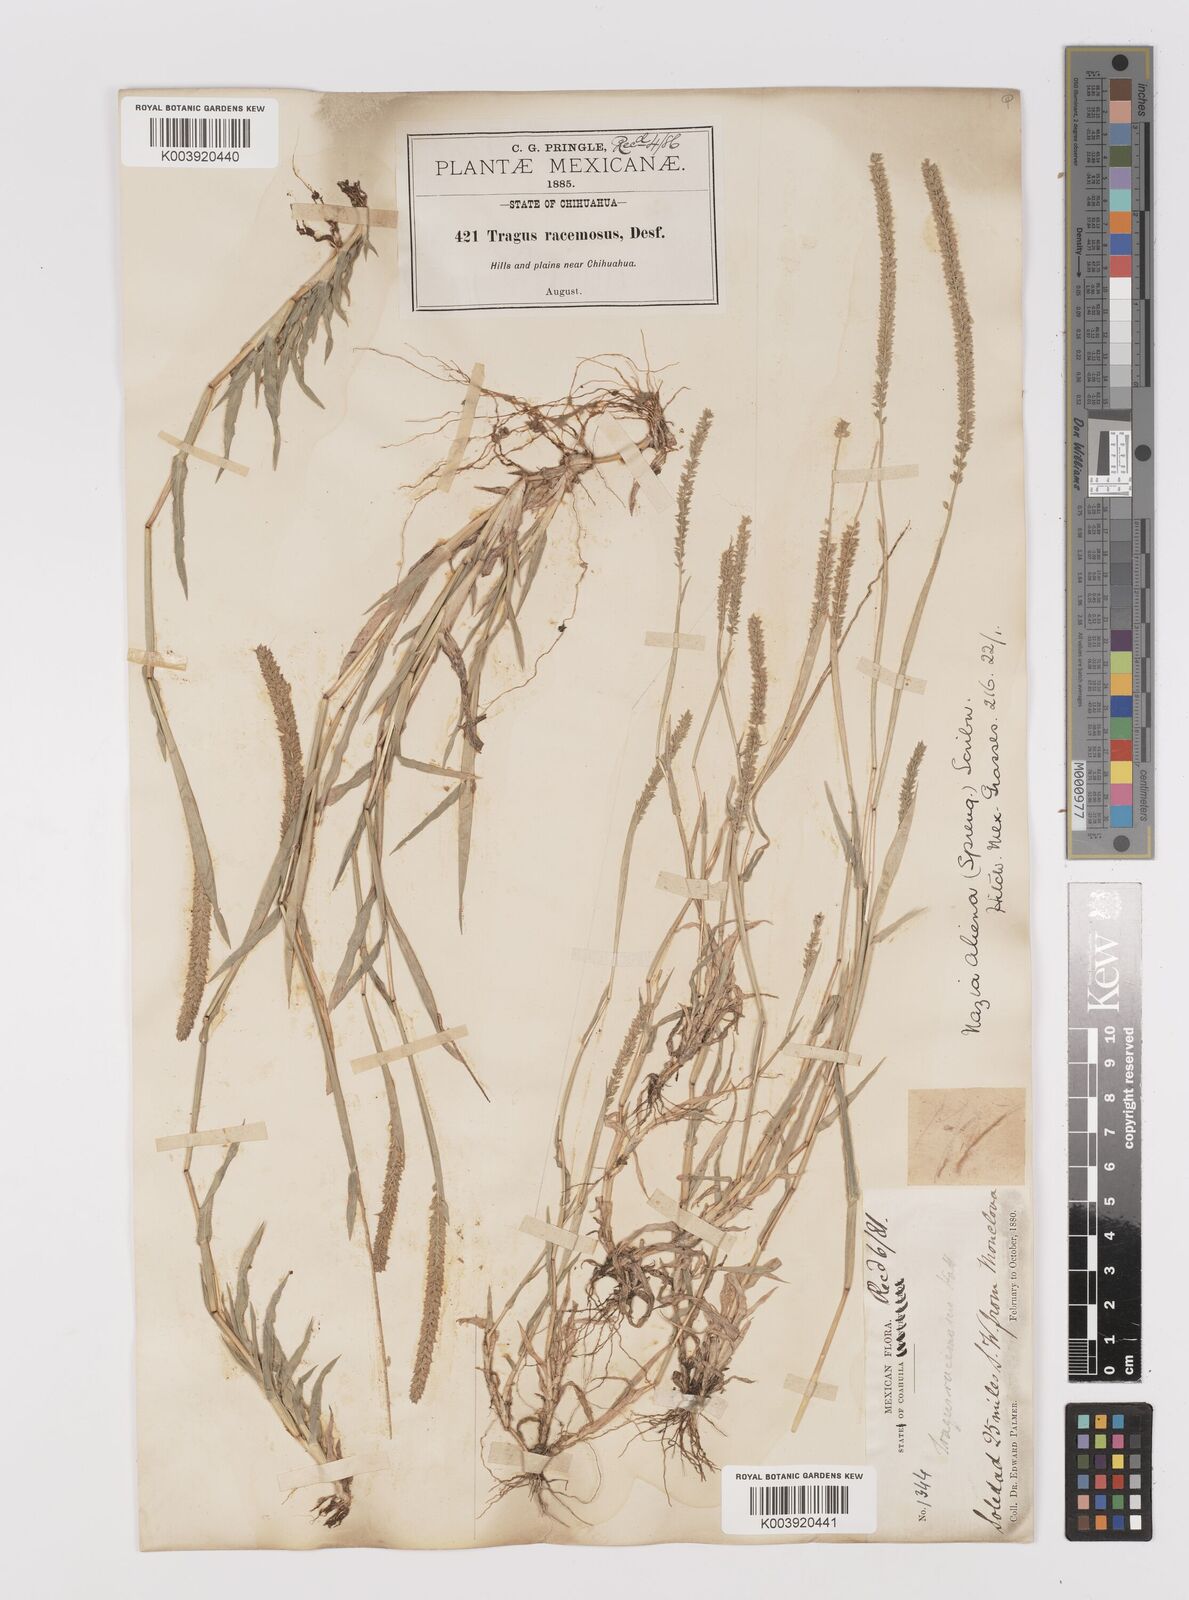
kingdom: Plantae
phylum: Tracheophyta
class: Liliopsida
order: Poales
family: Poaceae
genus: Tragus
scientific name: Tragus berteronianus
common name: African bur-grass
